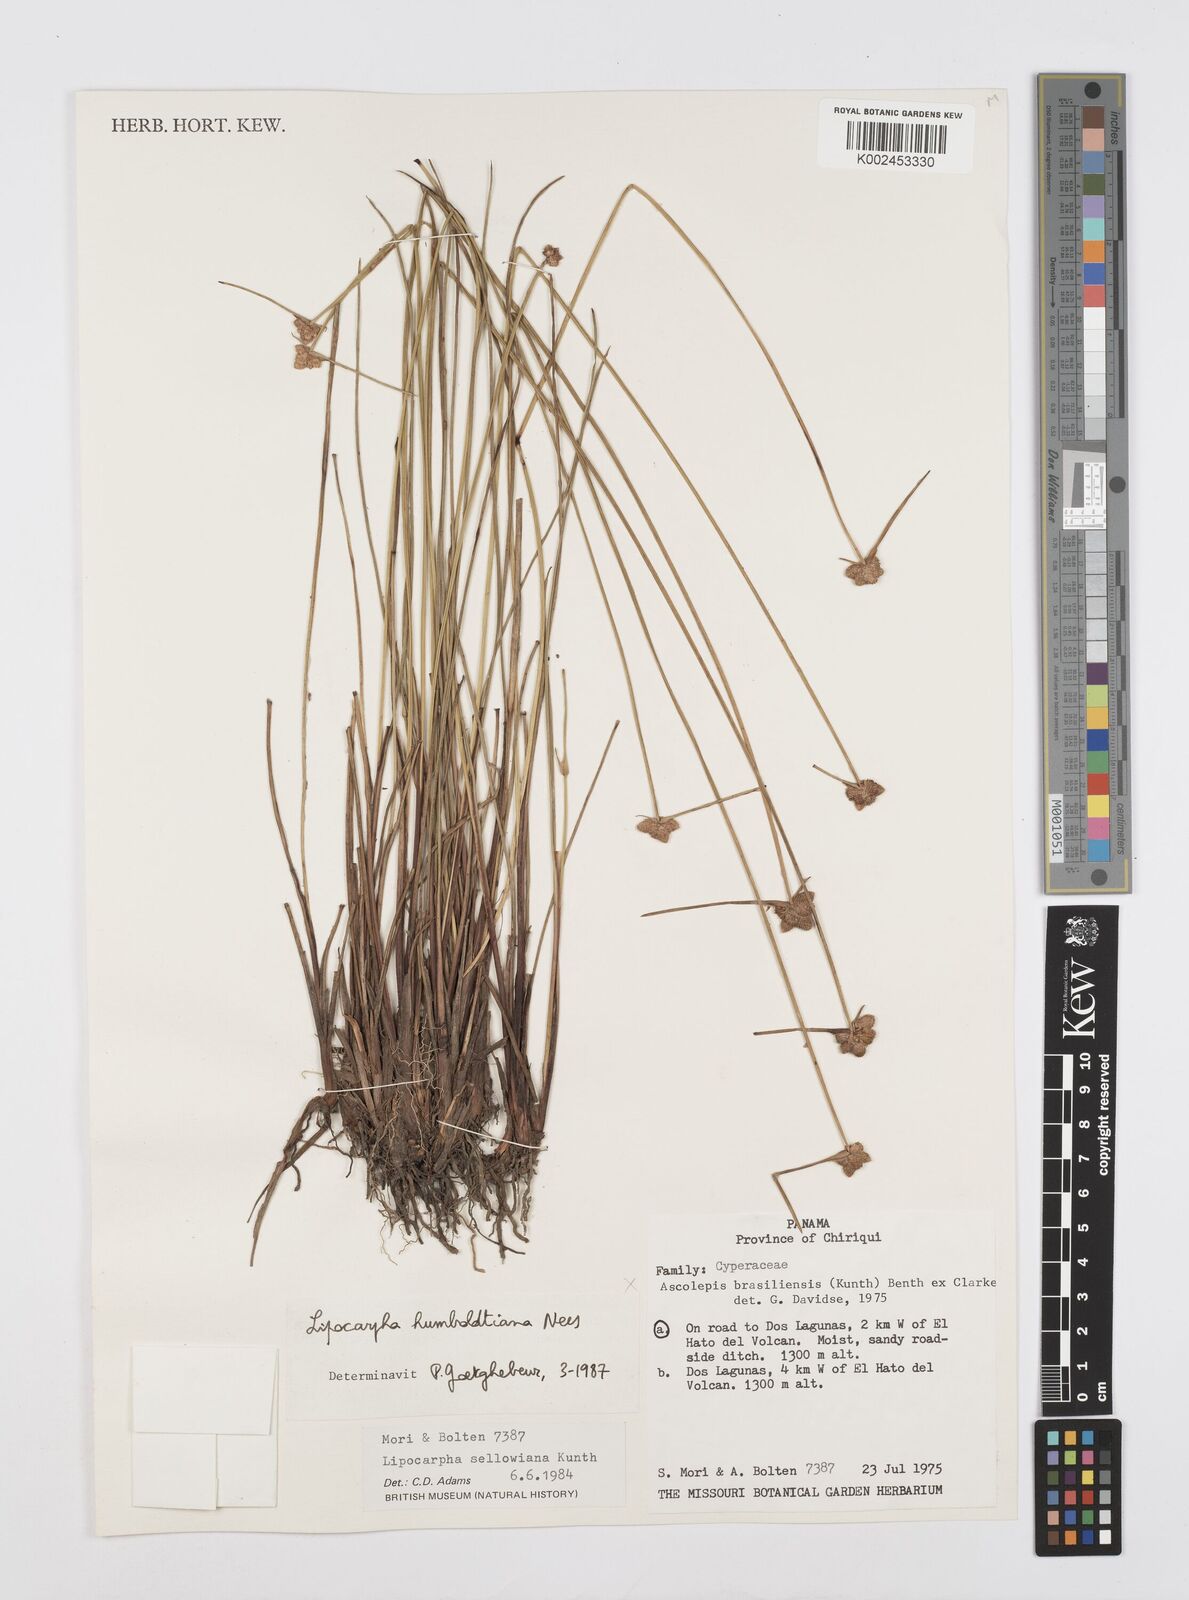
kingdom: Plantae
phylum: Tracheophyta
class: Liliopsida
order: Poales
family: Cyperaceae
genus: Cyperus
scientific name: Cyperus lanceolatus
